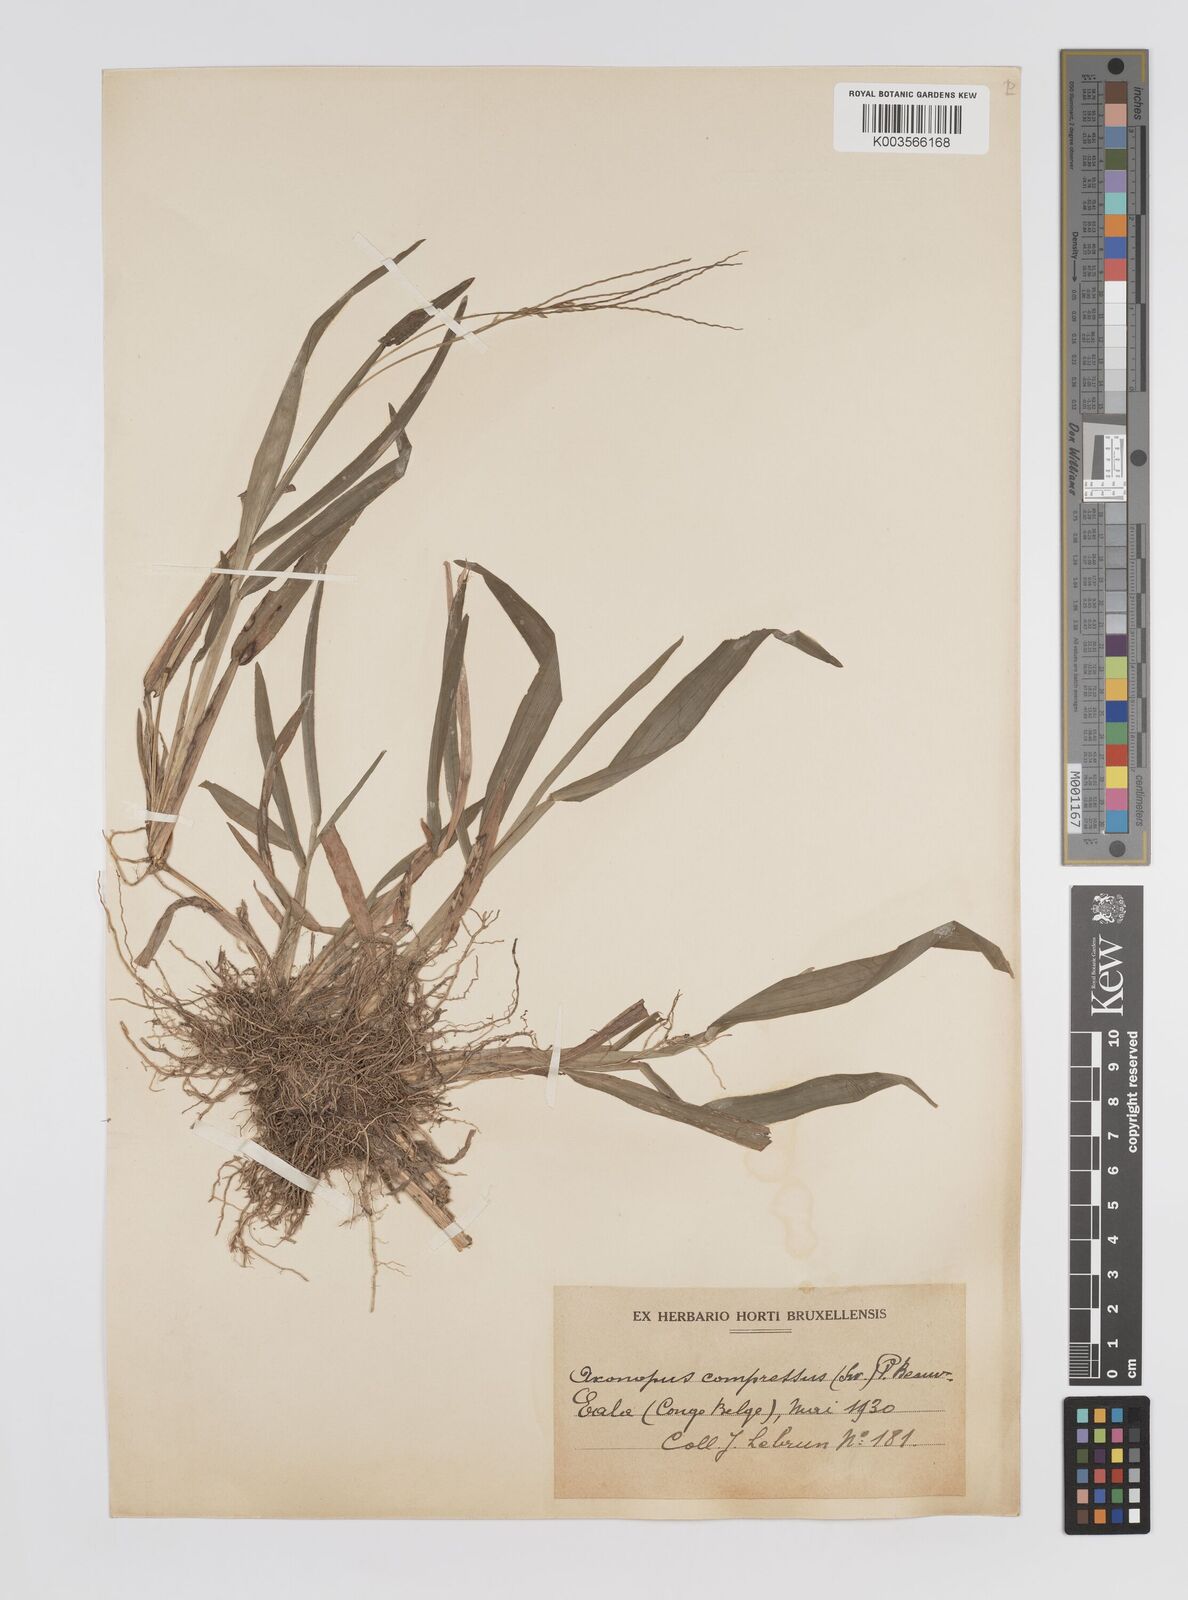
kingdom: Plantae
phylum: Tracheophyta
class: Liliopsida
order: Poales
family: Poaceae
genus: Axonopus
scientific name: Axonopus flexuosus
